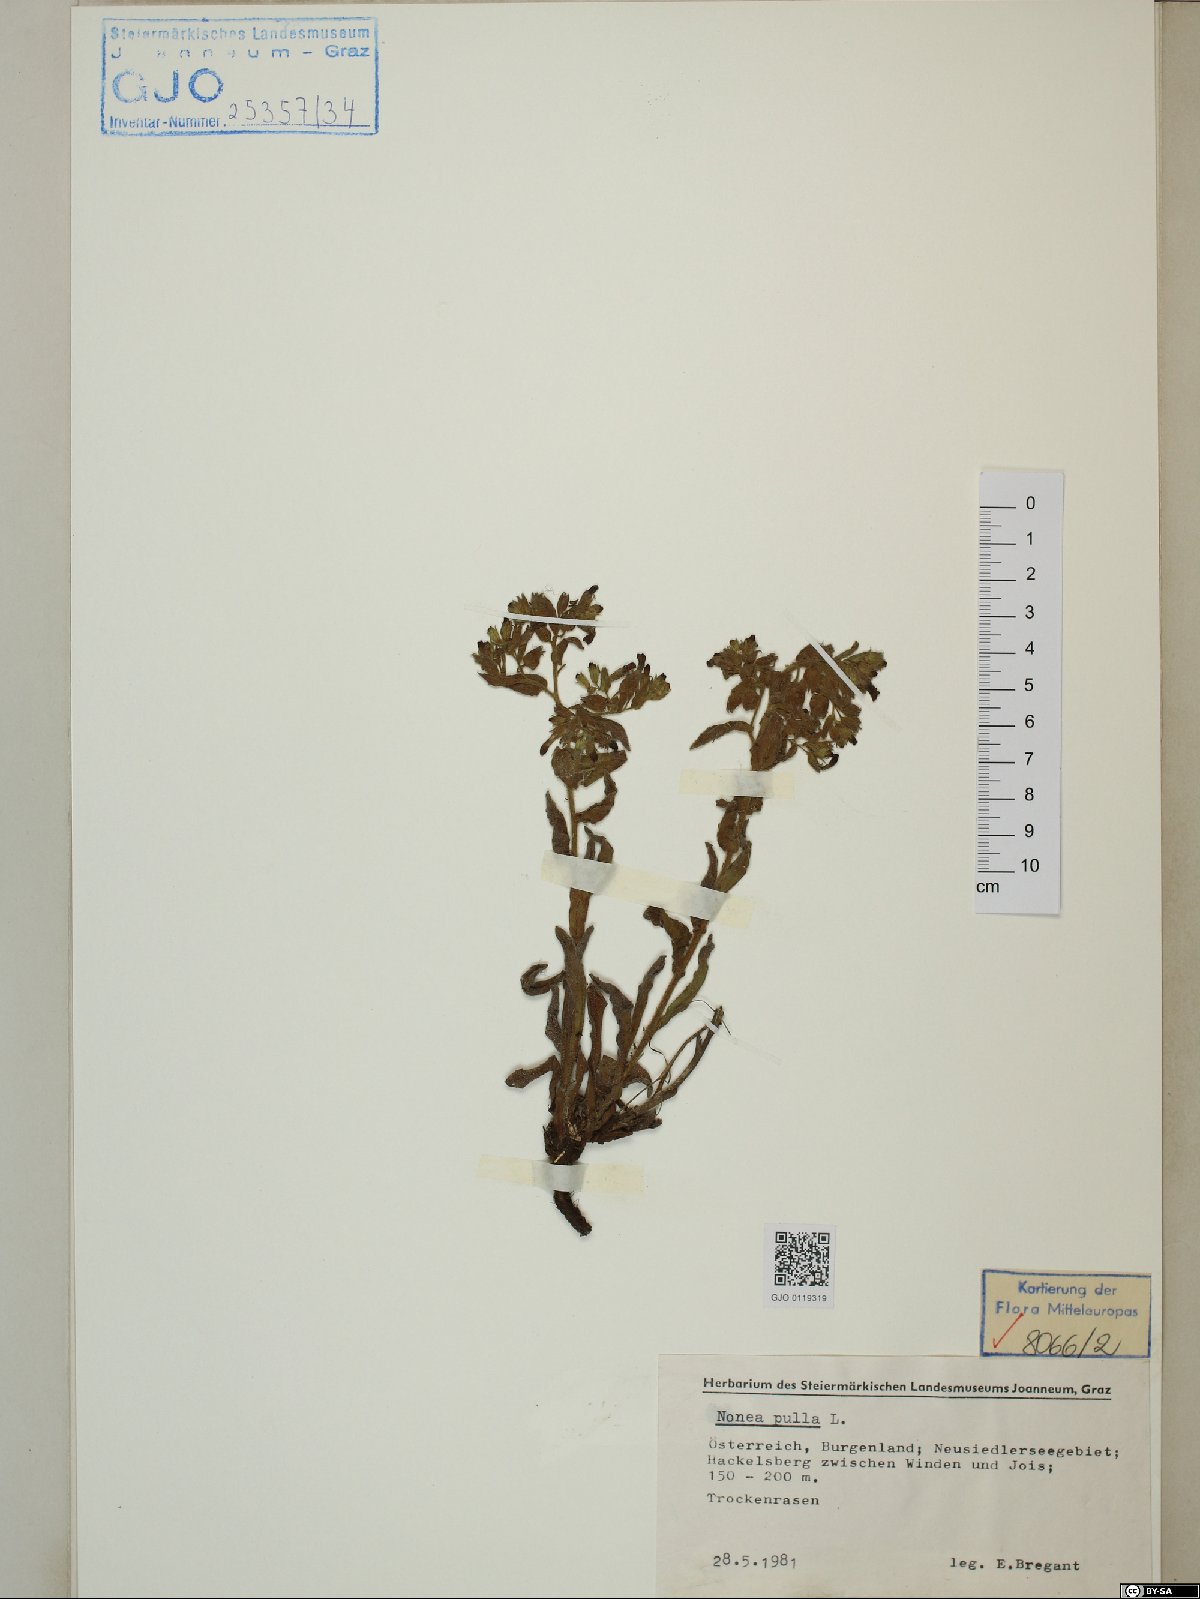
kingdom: Plantae
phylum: Tracheophyta
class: Magnoliopsida
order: Boraginales
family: Boraginaceae
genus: Nonea
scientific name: Nonea pulla
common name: Brown nonea
